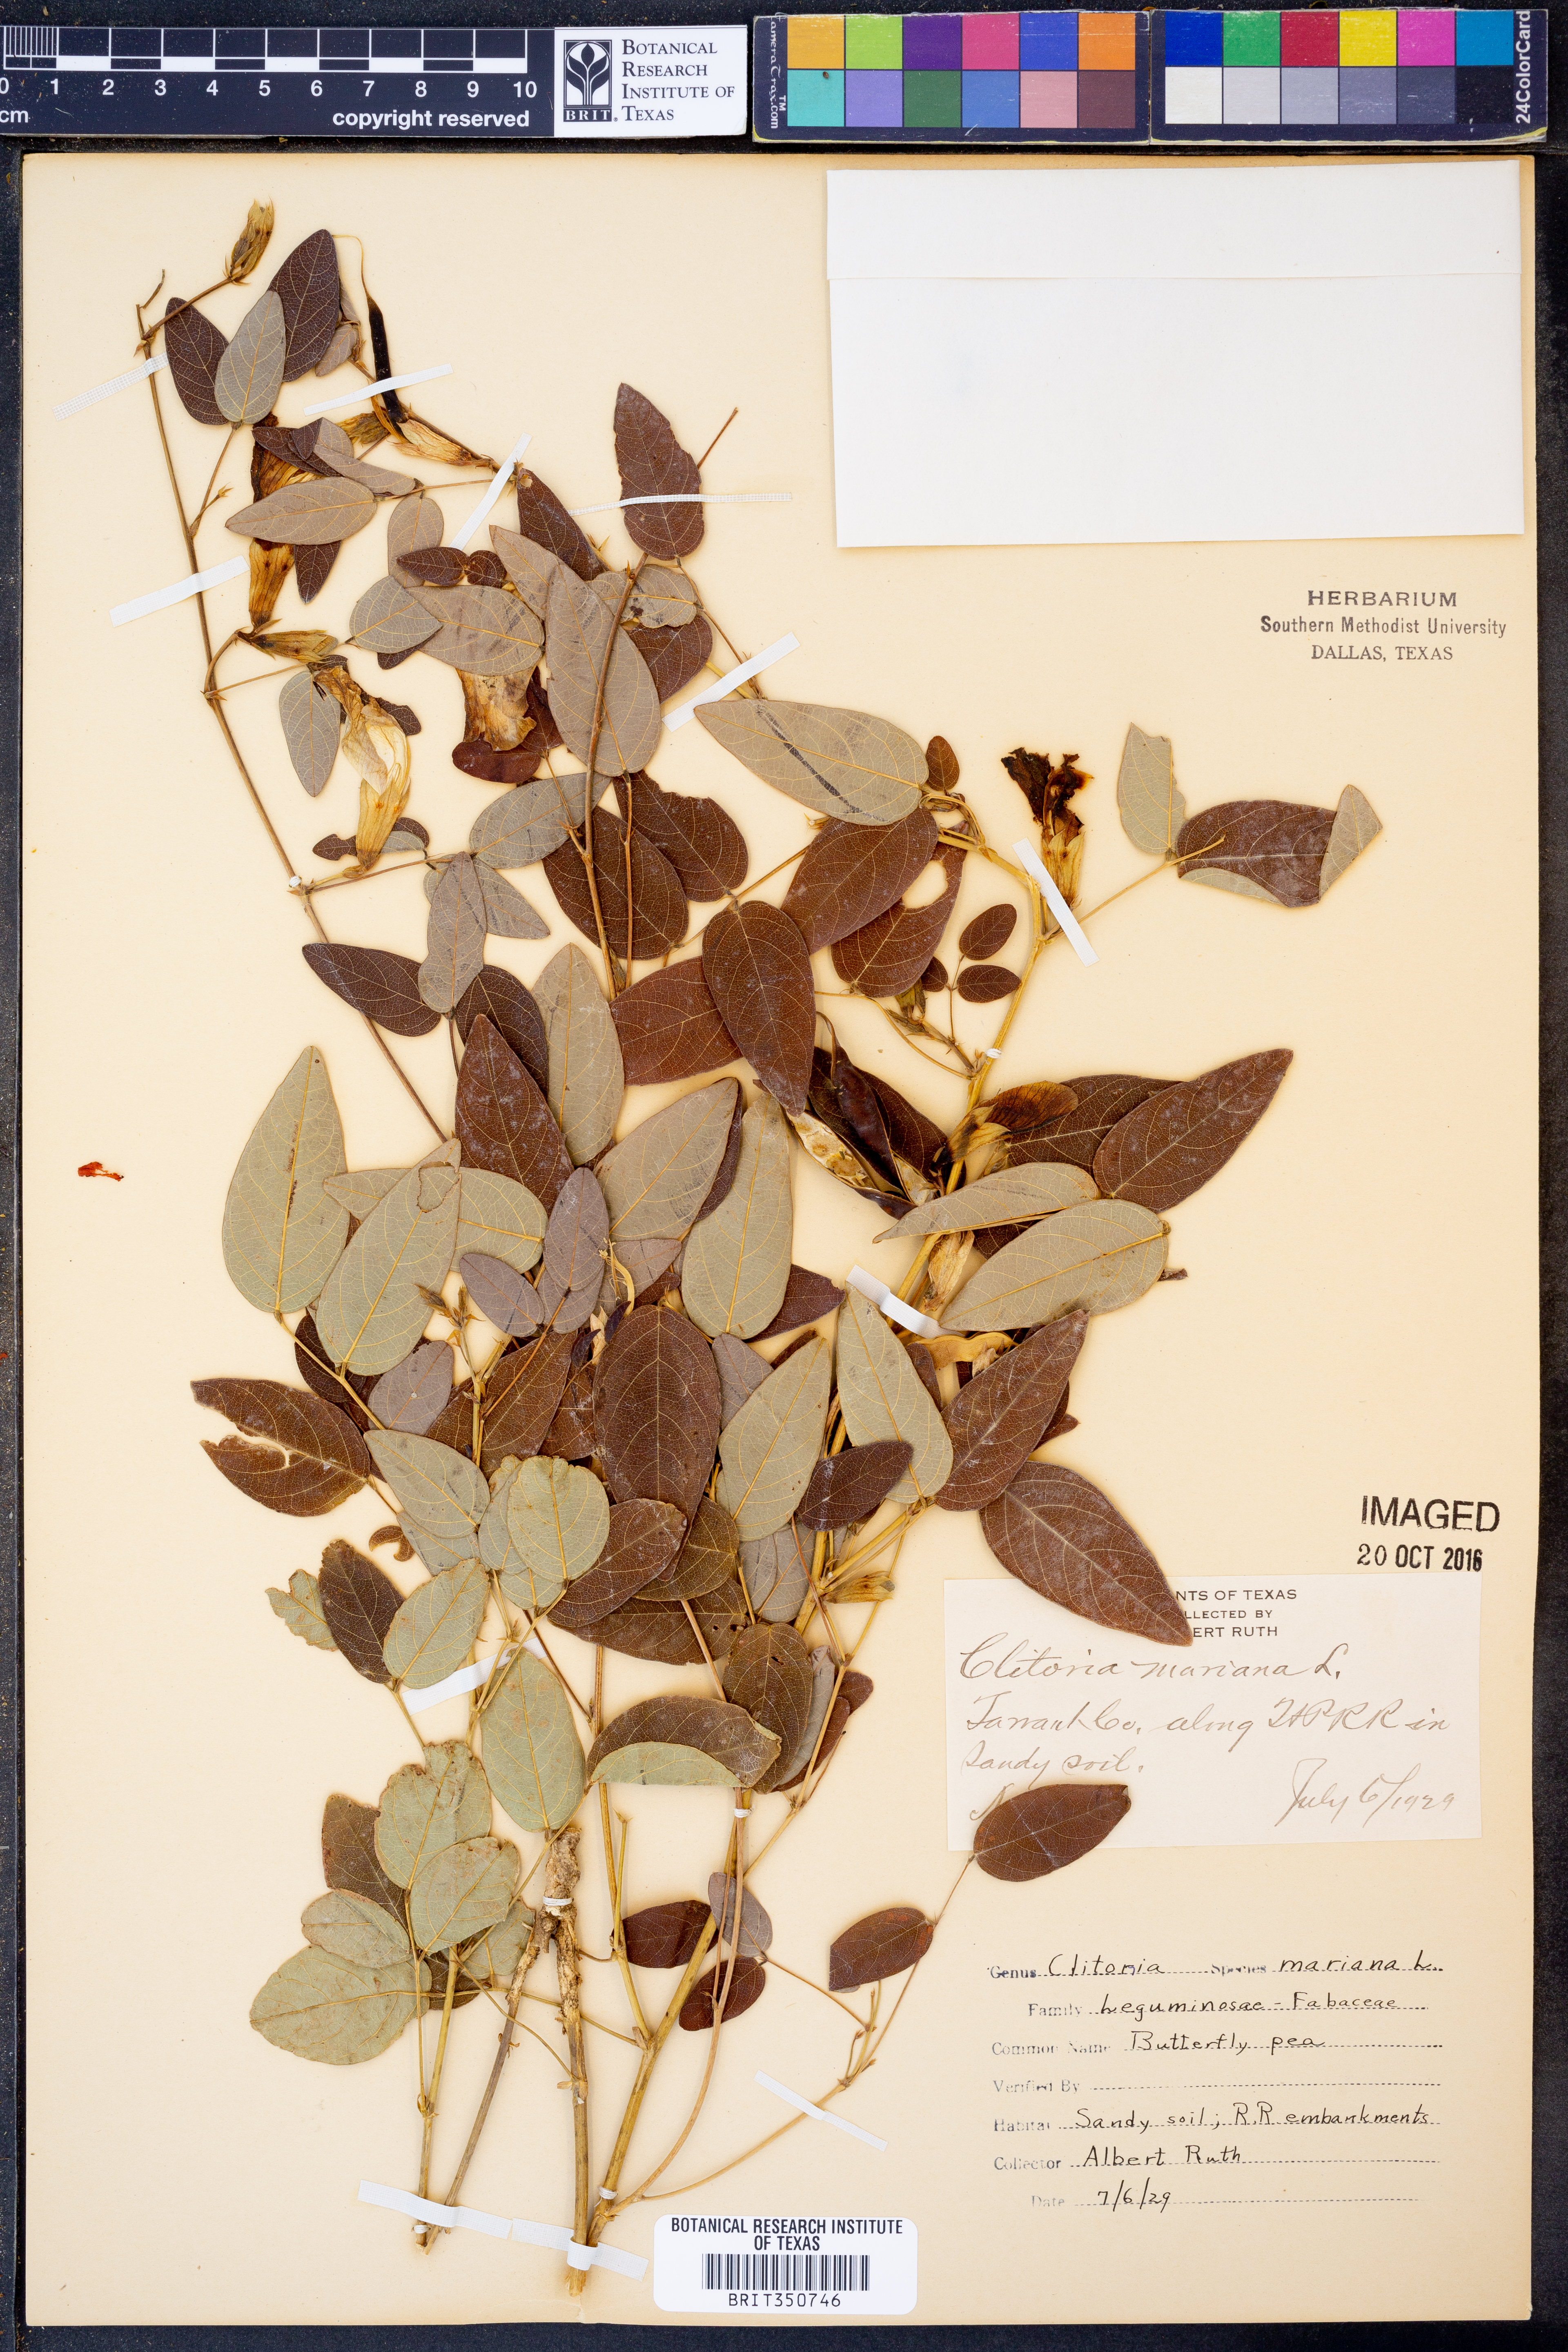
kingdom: Plantae
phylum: Tracheophyta
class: Magnoliopsida
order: Fabales
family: Fabaceae
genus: Clitoria
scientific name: Clitoria mariana
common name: Butterfly-pea
